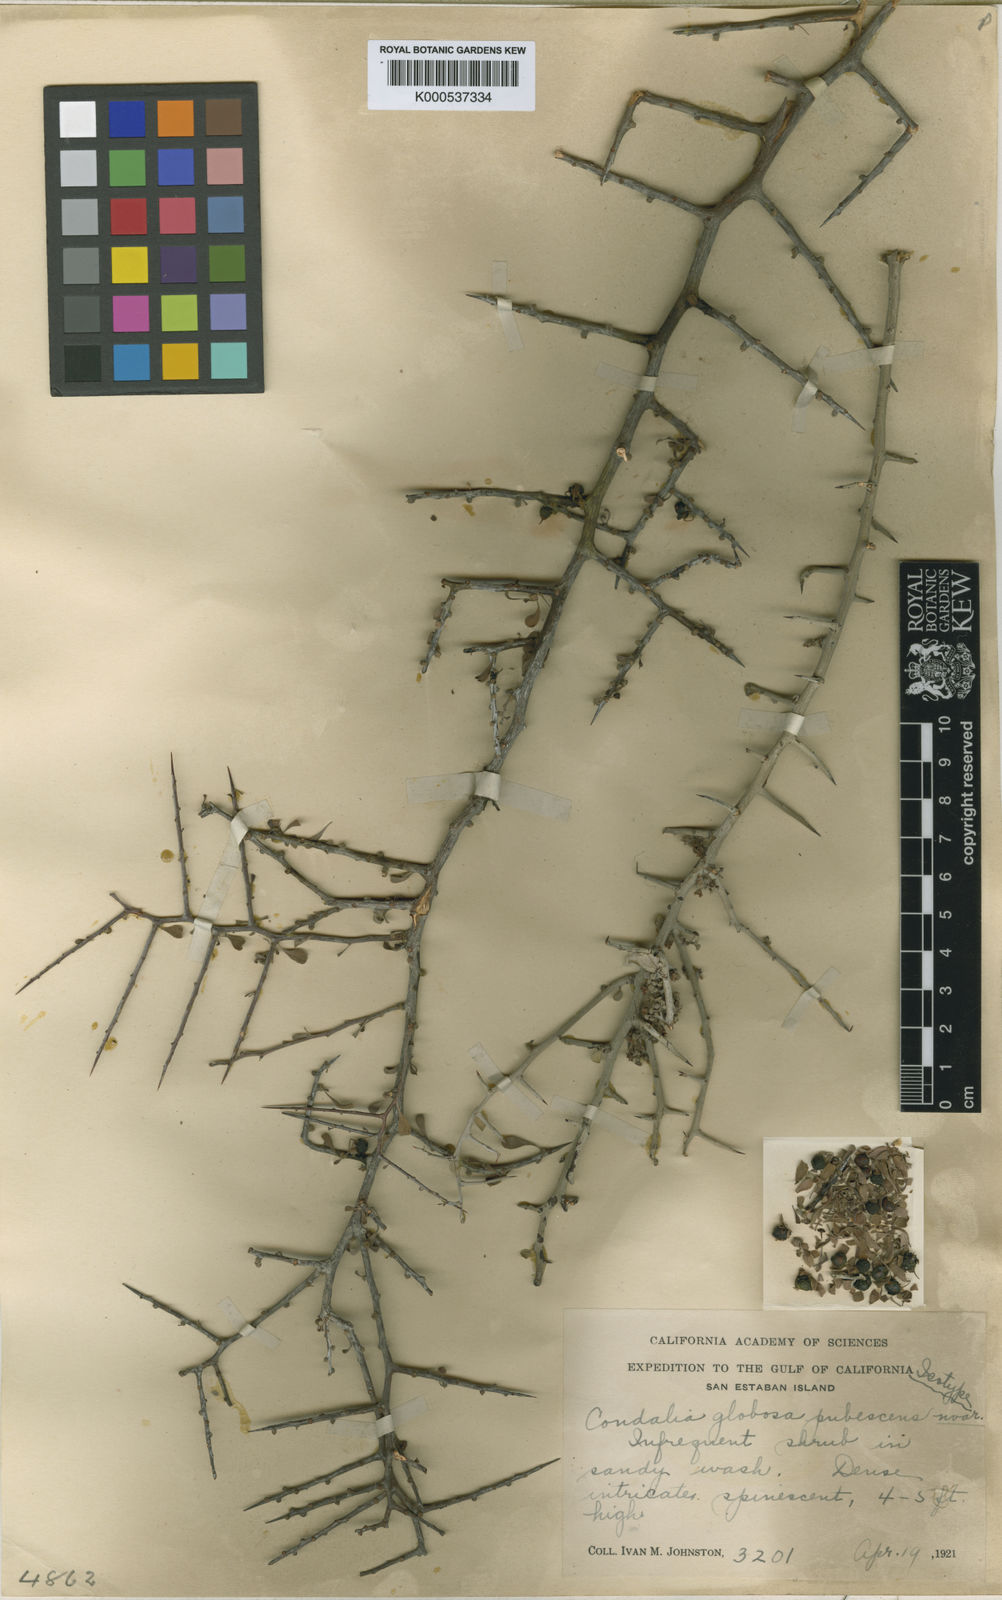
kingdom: Plantae
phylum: Tracheophyta
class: Magnoliopsida
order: Rosales
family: Rhamnaceae
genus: Condalia
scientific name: Condalia globosa
